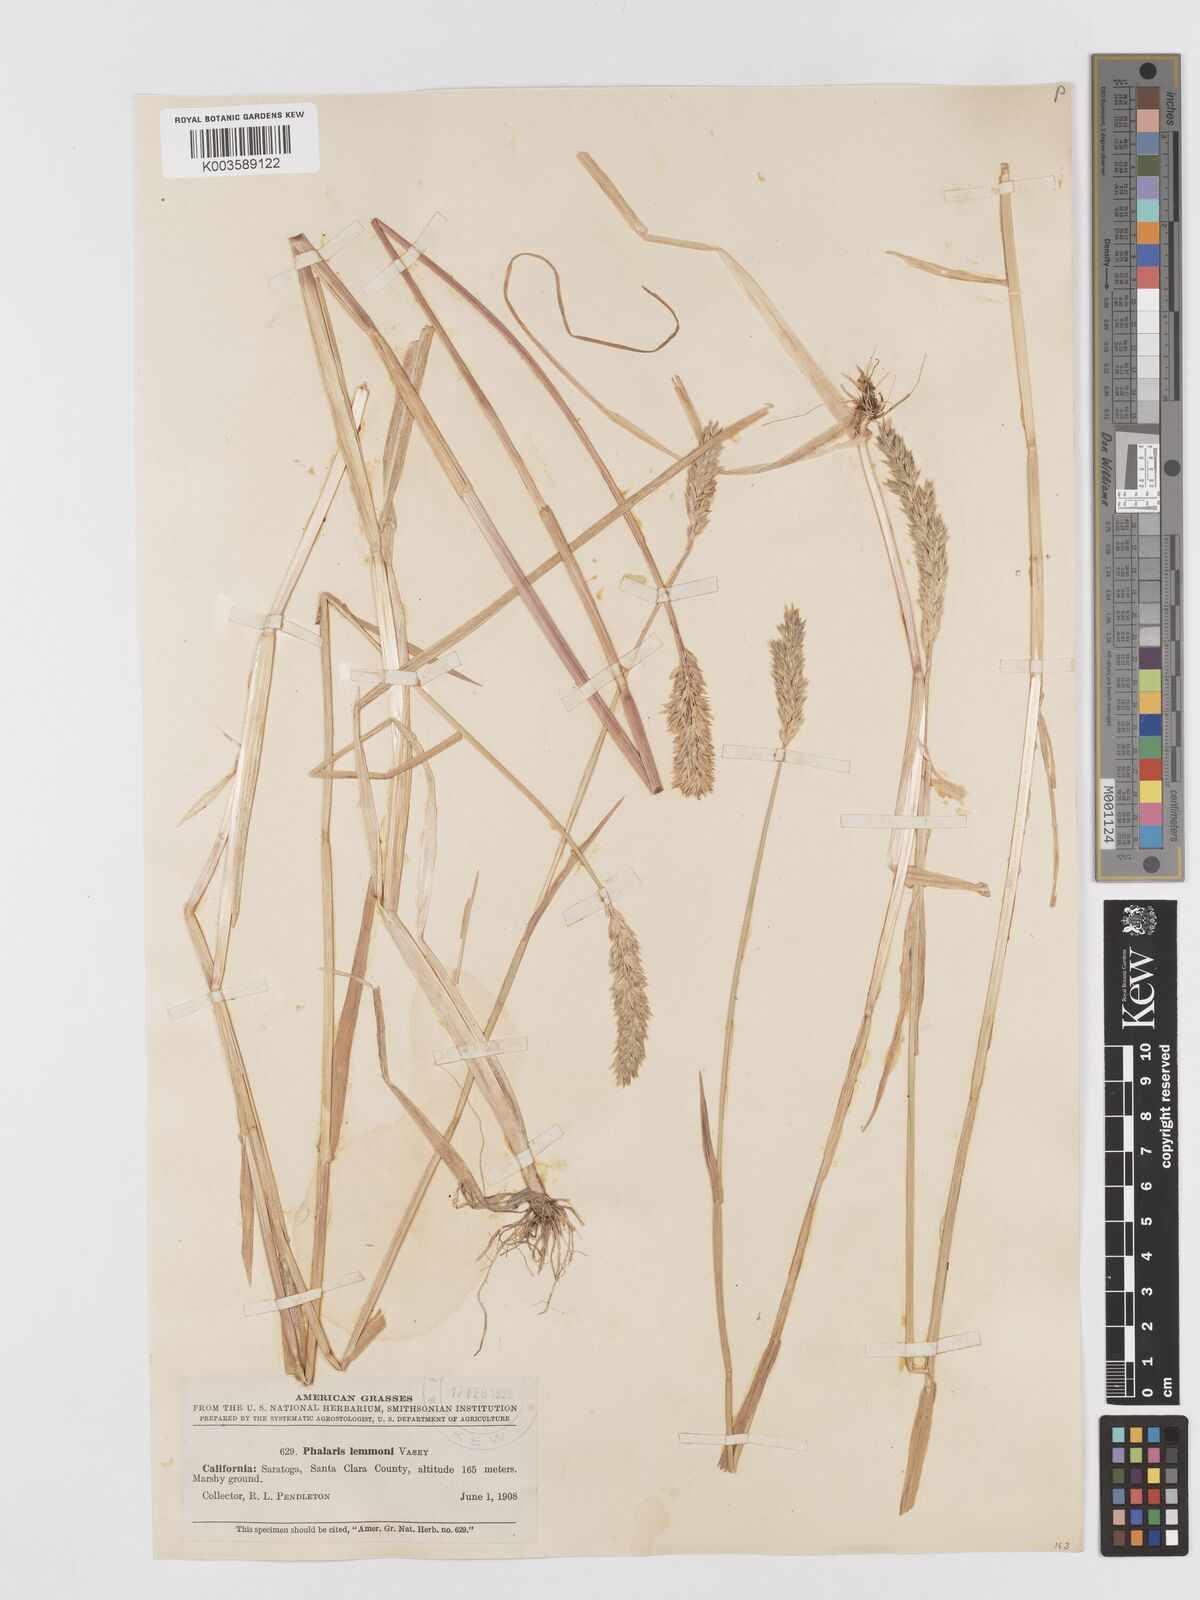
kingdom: Plantae
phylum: Tracheophyta
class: Liliopsida
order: Poales
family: Poaceae
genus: Phalaris
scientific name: Phalaris lemmonii
